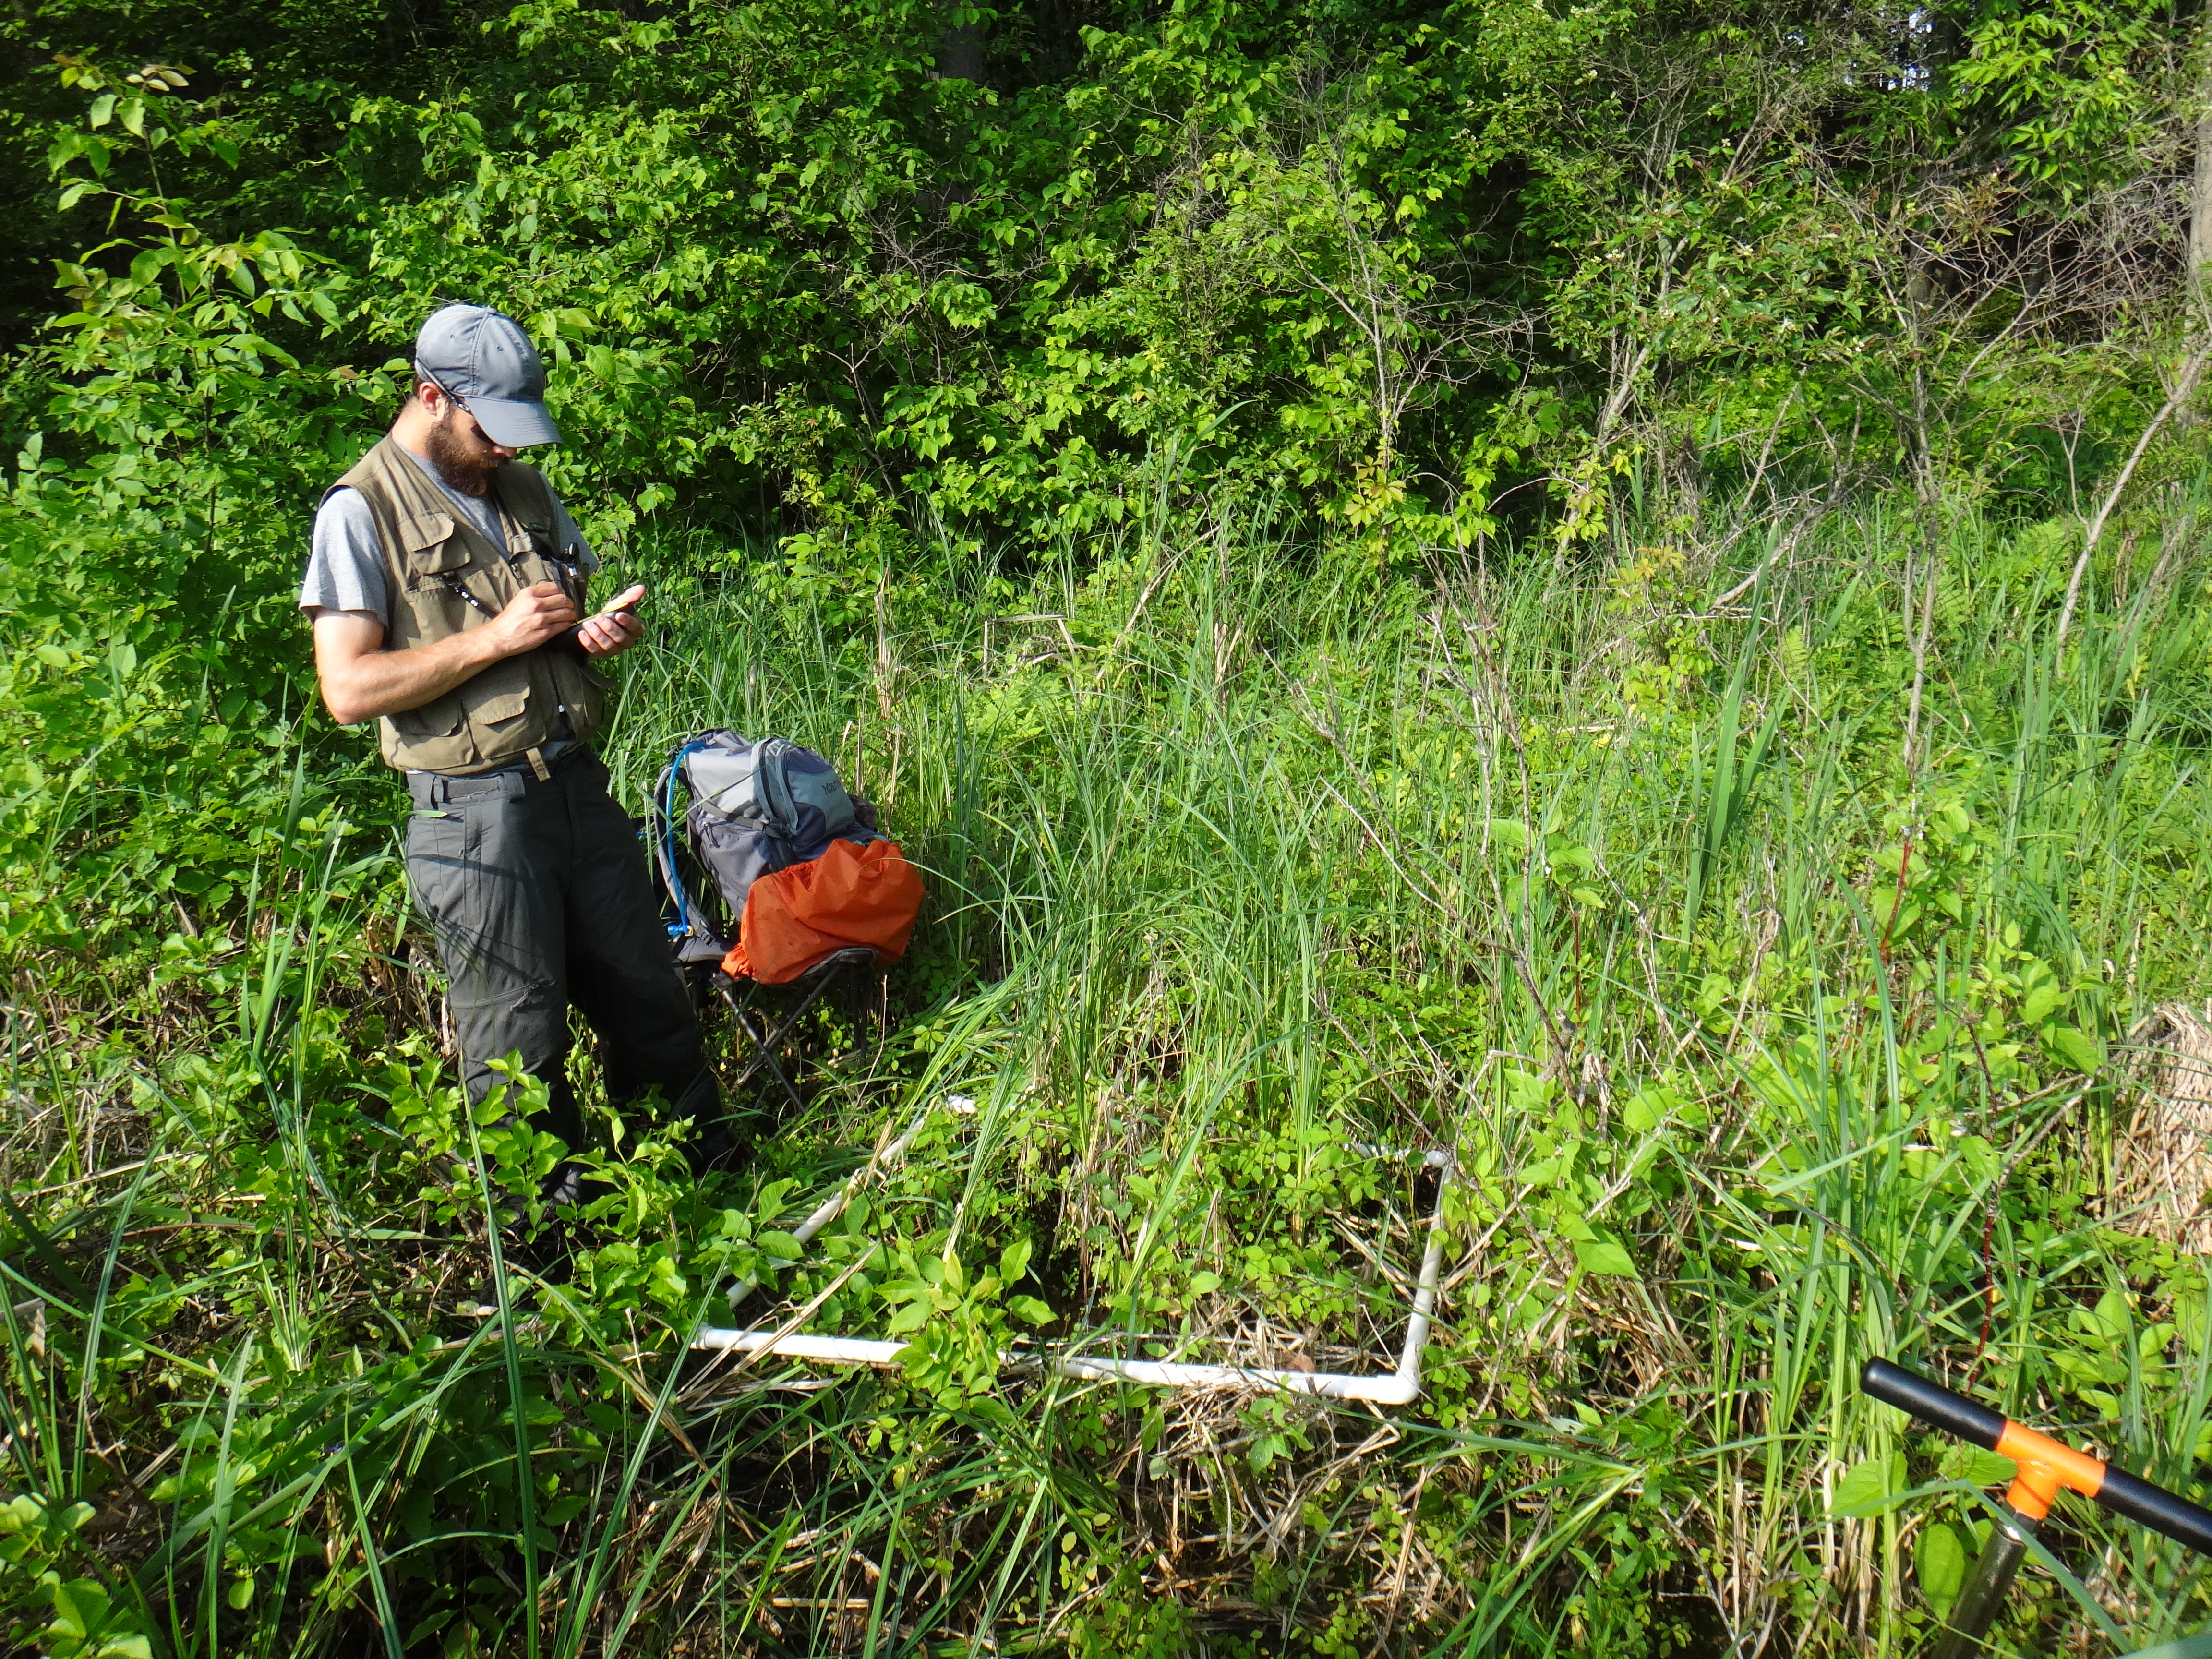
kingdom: Plantae
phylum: Tracheophyta
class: Magnoliopsida
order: Ericales
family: Balsaminaceae
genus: Impatiens
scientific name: Impatiens capensis
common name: Orange balsam
